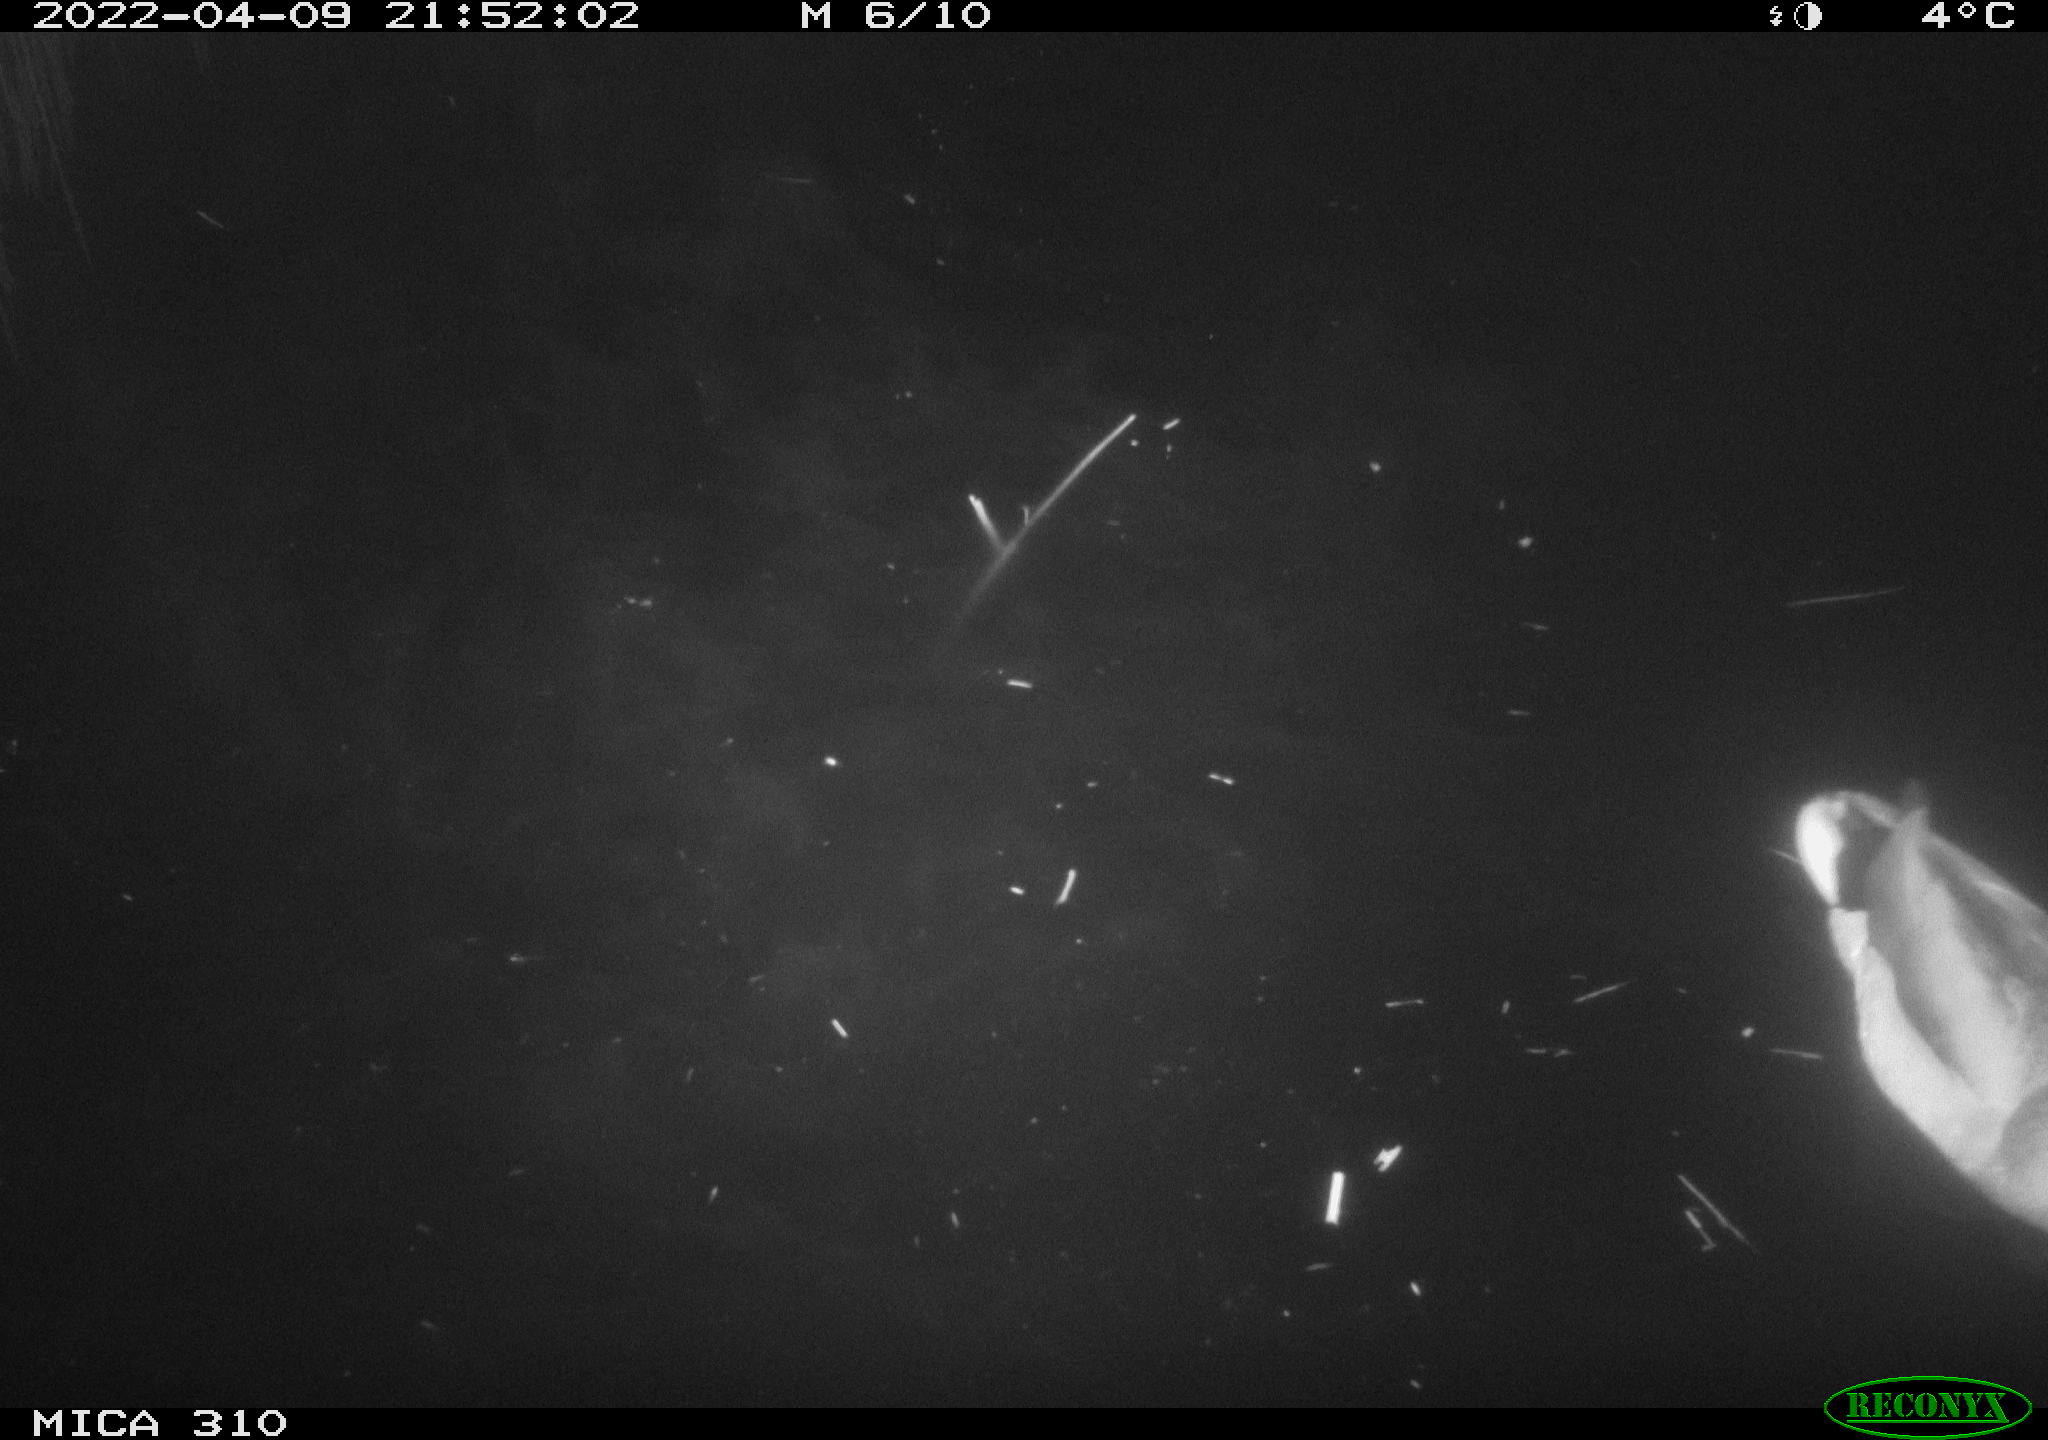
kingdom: Animalia
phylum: Chordata
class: Aves
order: Anseriformes
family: Anatidae
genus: Anas
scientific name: Anas platyrhynchos
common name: Mallard
